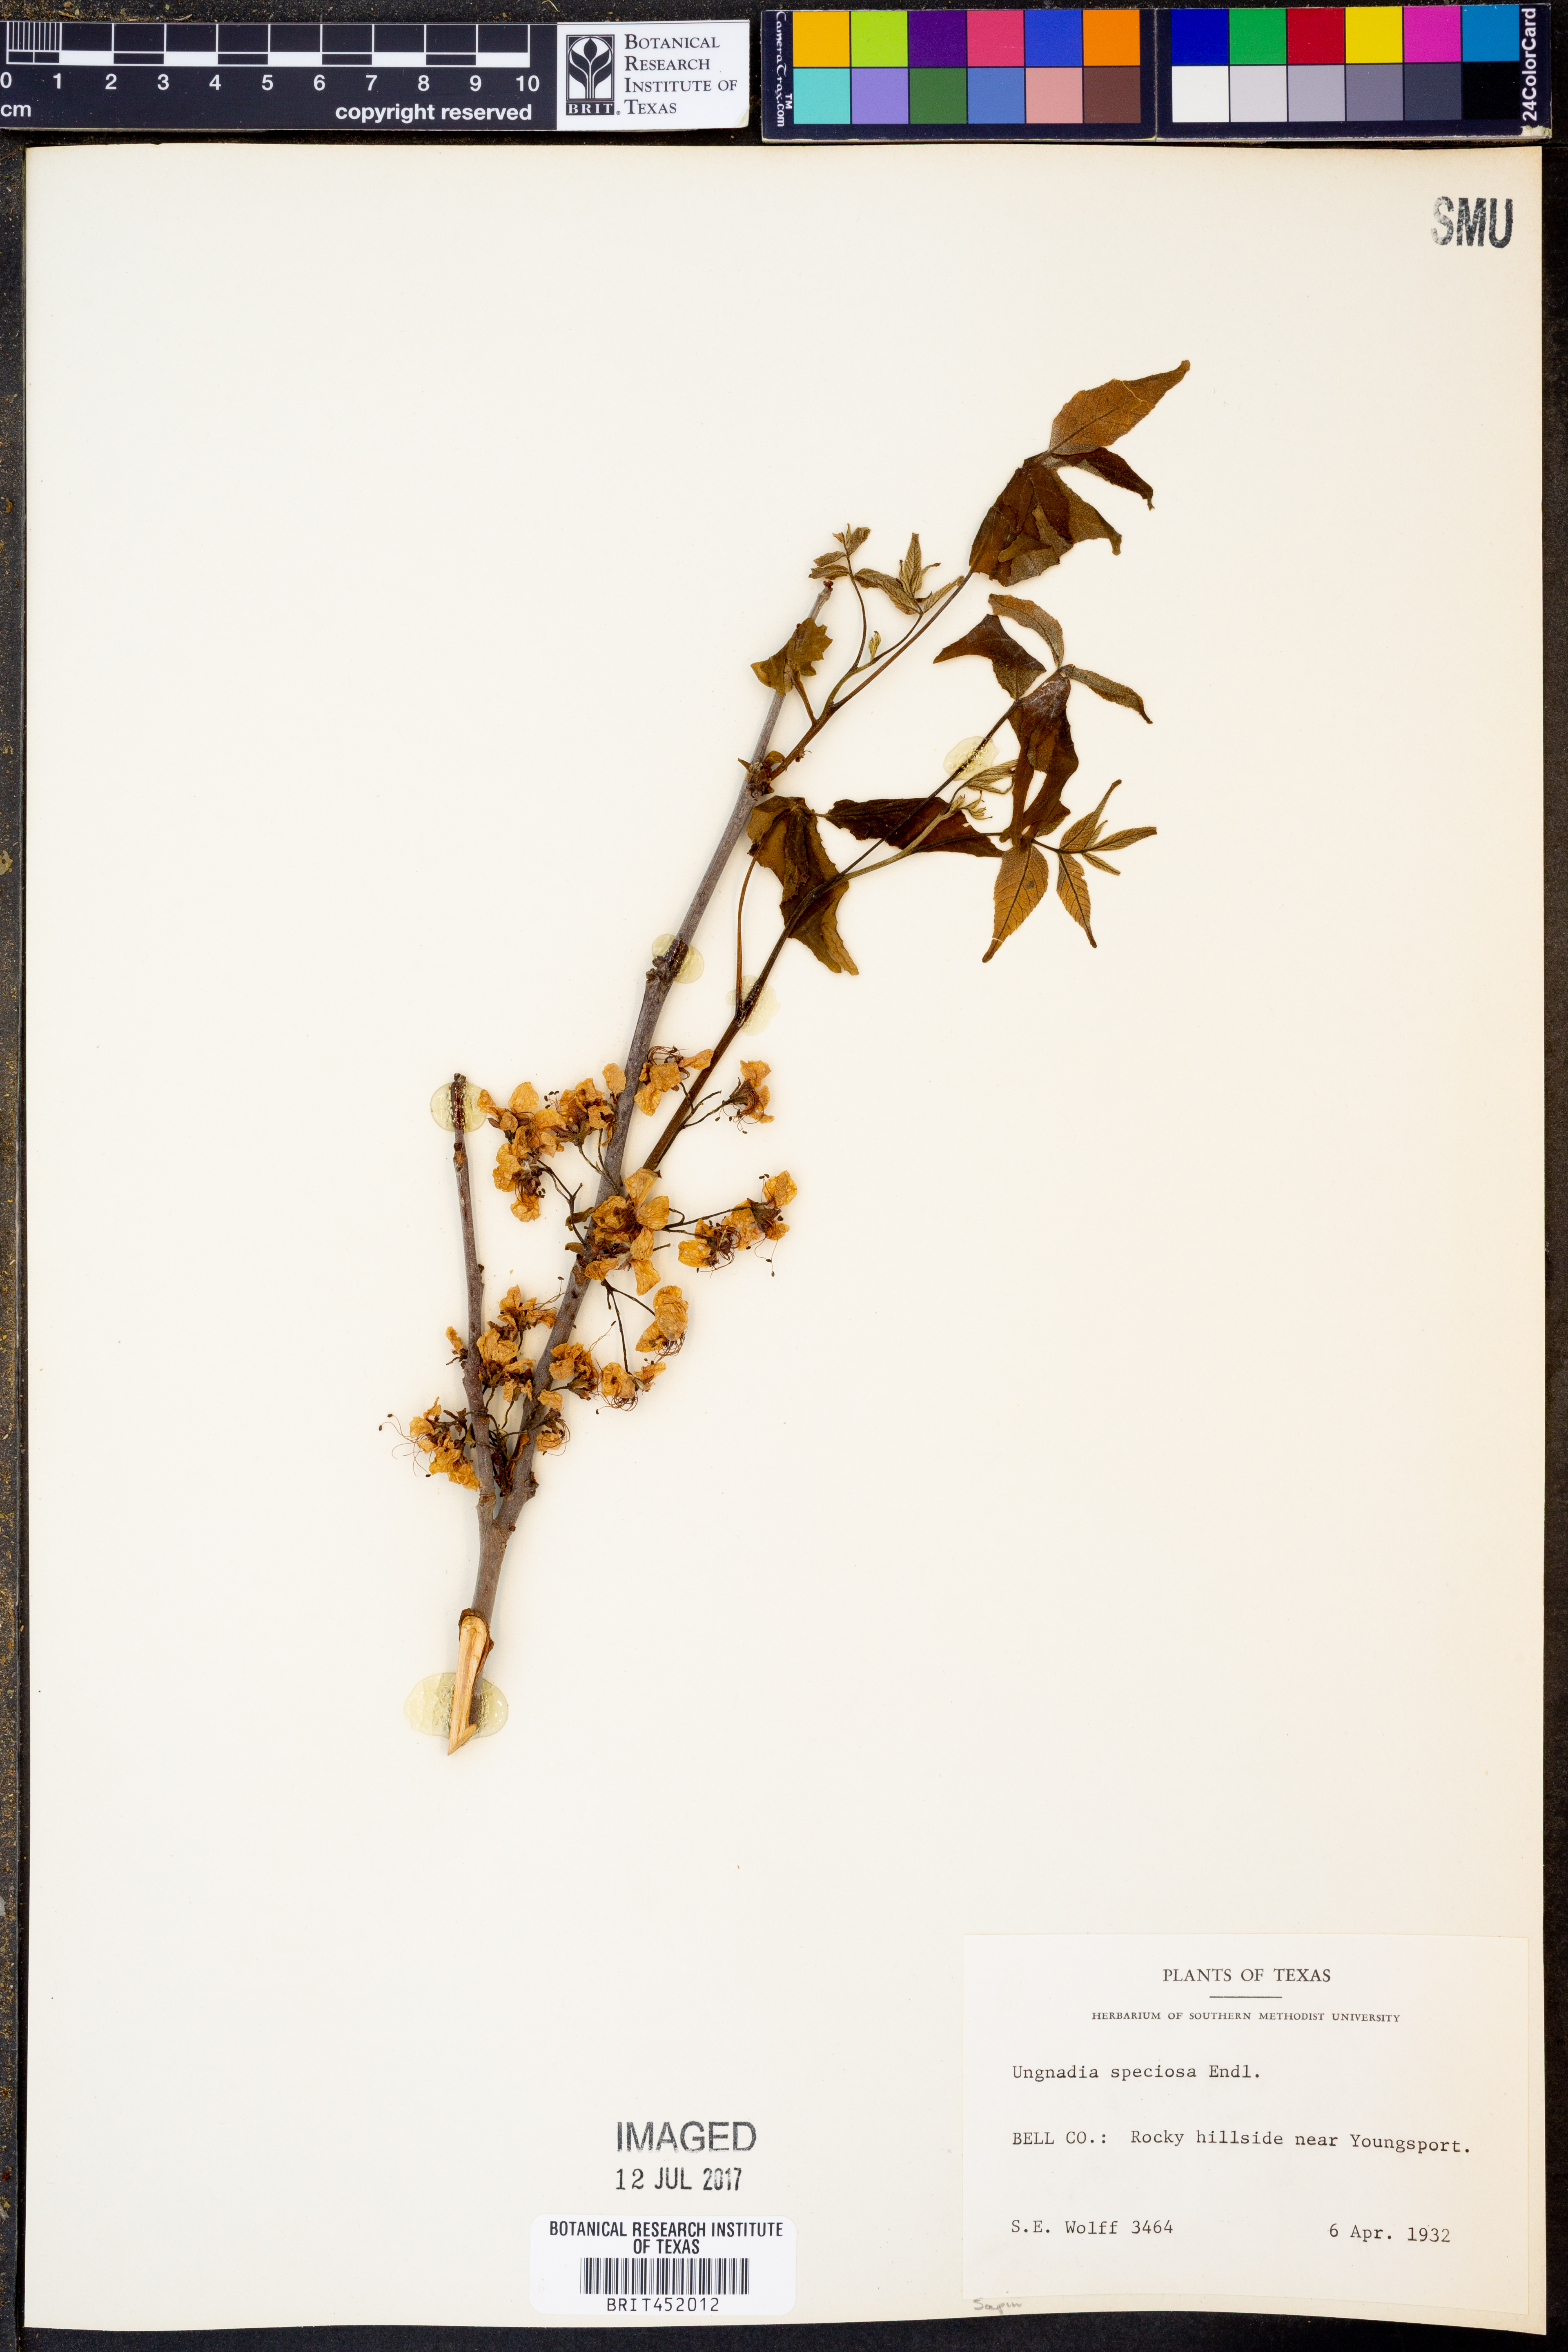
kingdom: Plantae
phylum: Tracheophyta
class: Magnoliopsida
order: Sapindales
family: Sapindaceae
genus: Ungnadia
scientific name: Ungnadia speciosa
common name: Texas-buckeye
